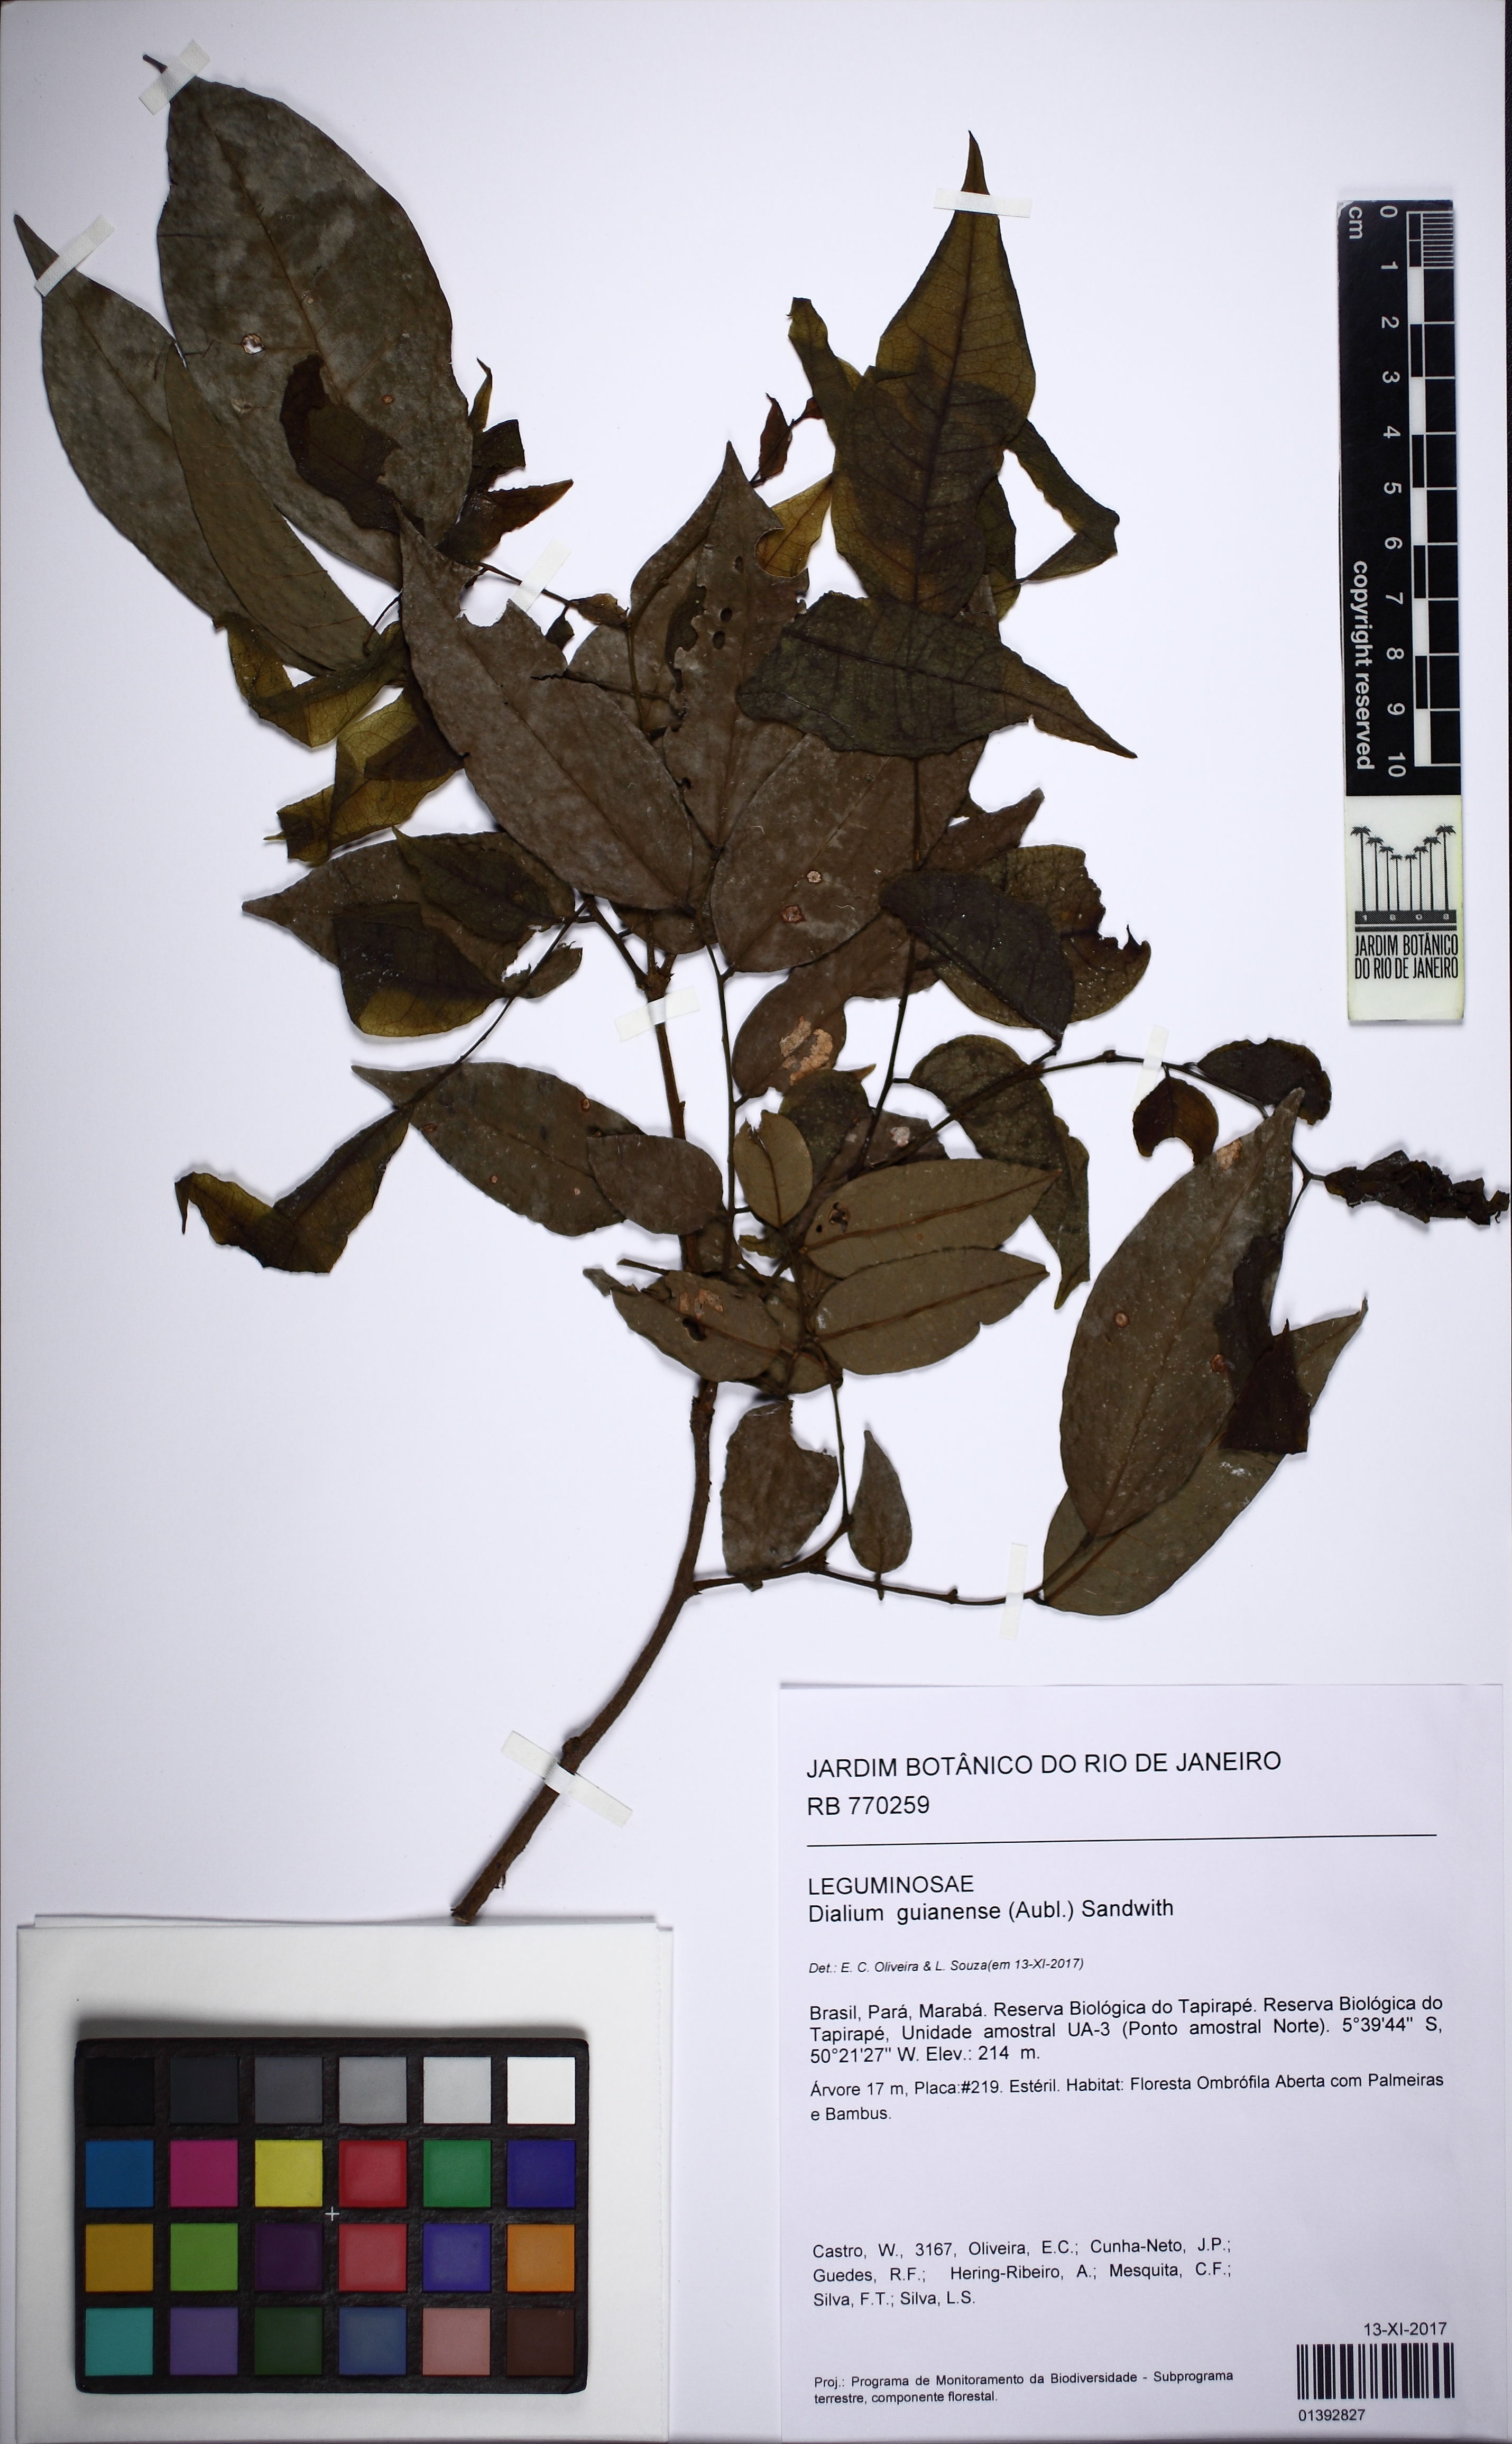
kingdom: Plantae
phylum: Tracheophyta
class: Magnoliopsida
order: Fabales
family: Fabaceae
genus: Dialium
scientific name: Dialium guianense
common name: Ironwood
